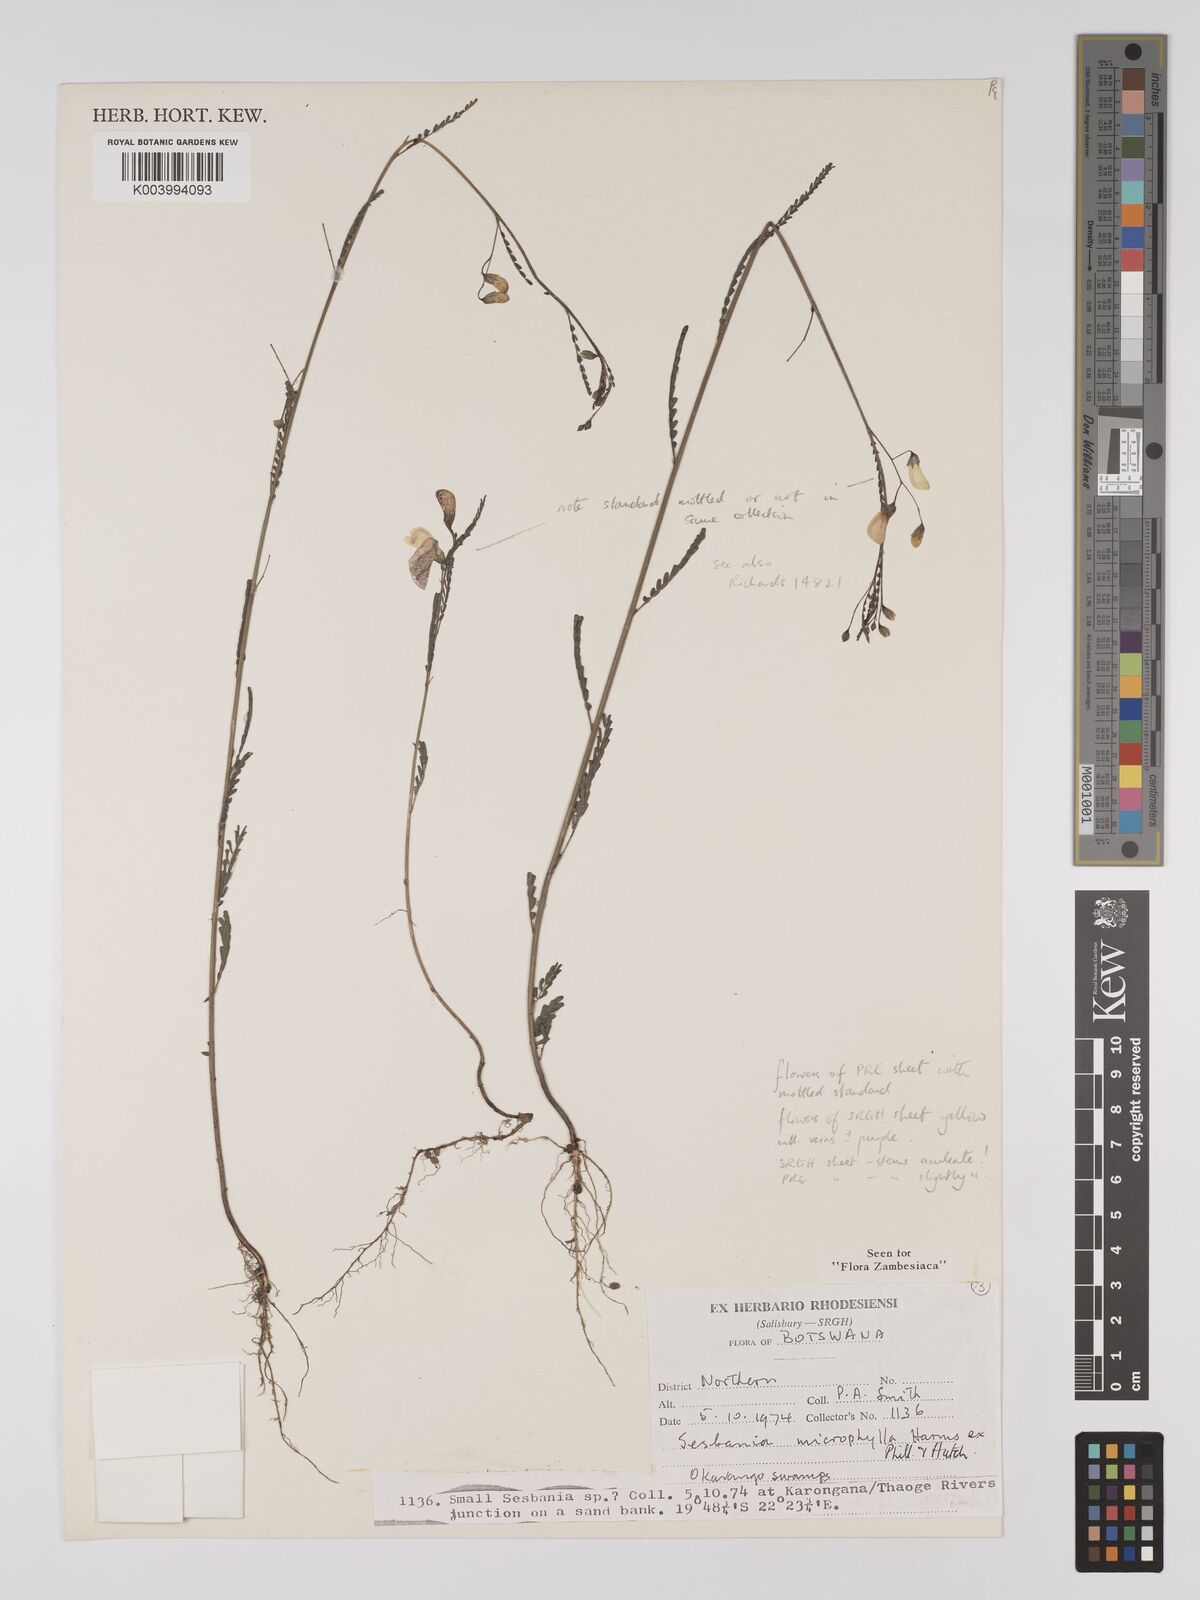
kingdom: Plantae
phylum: Tracheophyta
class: Magnoliopsida
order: Fabales
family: Fabaceae
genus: Sesbania
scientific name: Sesbania microphylla
